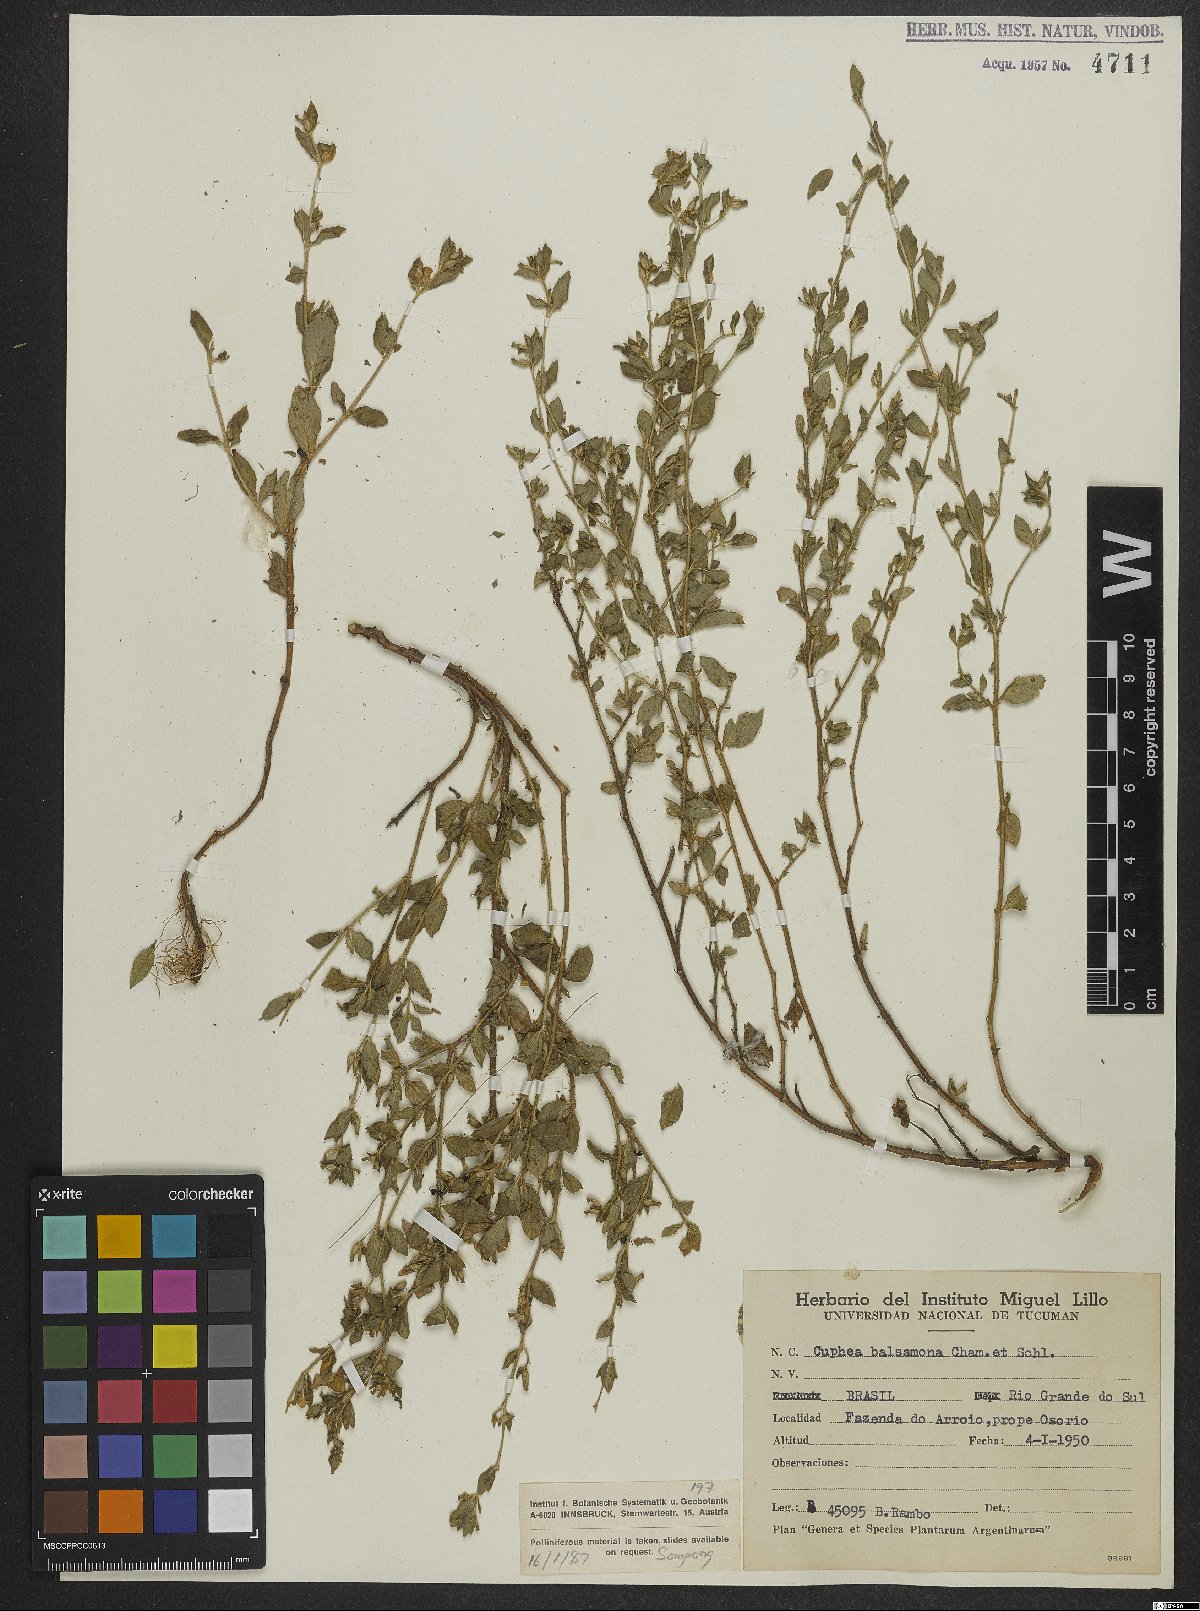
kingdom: Plantae
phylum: Tracheophyta
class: Magnoliopsida
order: Myrtales
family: Lythraceae
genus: Cuphea
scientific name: Cuphea carthagenensis
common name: Colombian waxweed
